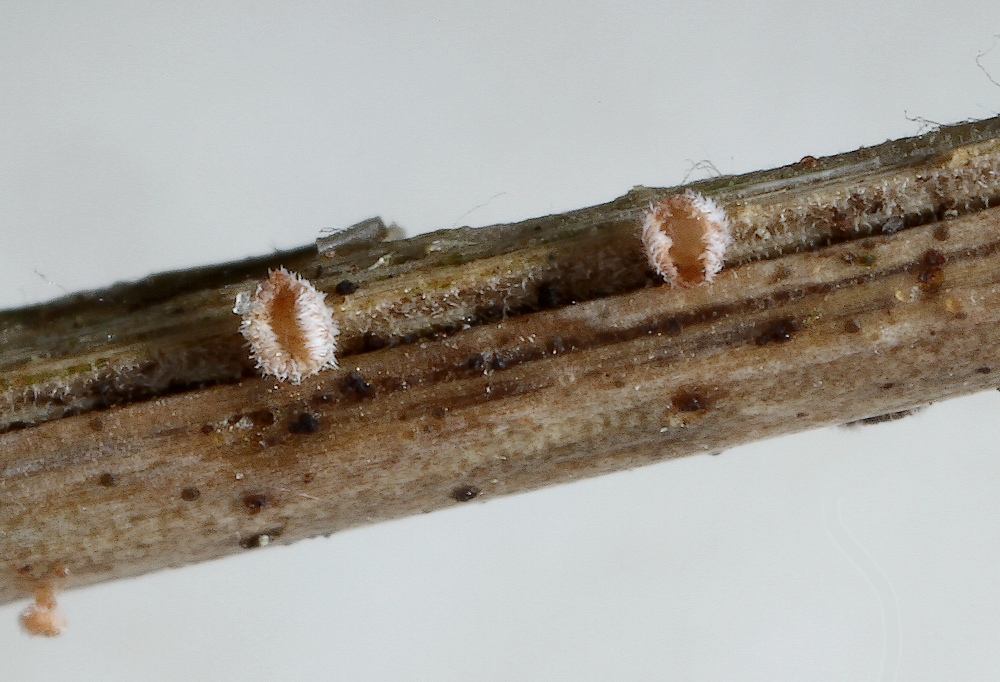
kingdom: Fungi
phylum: Ascomycota
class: Leotiomycetes
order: Helotiales
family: Lachnaceae
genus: Lachnum
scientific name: Lachnum
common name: frynseskive
